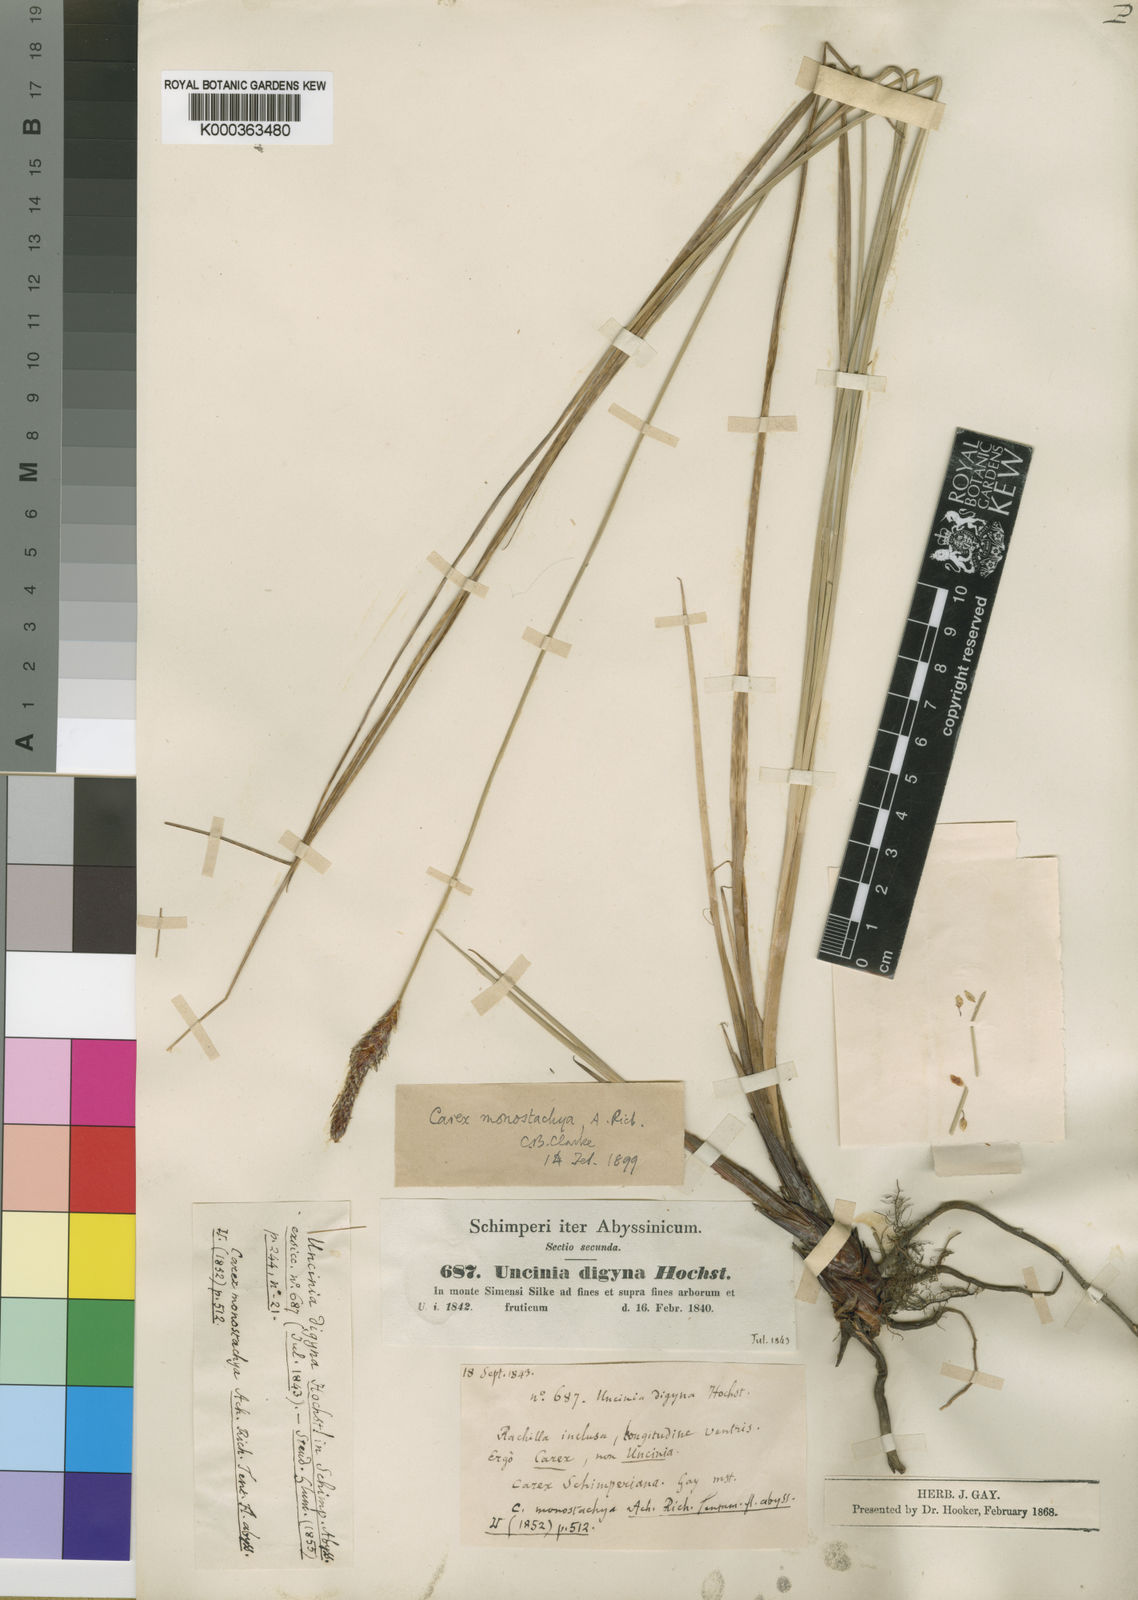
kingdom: Plantae
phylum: Tracheophyta
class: Liliopsida
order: Poales
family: Cyperaceae
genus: Carex
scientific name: Carex monostachya
